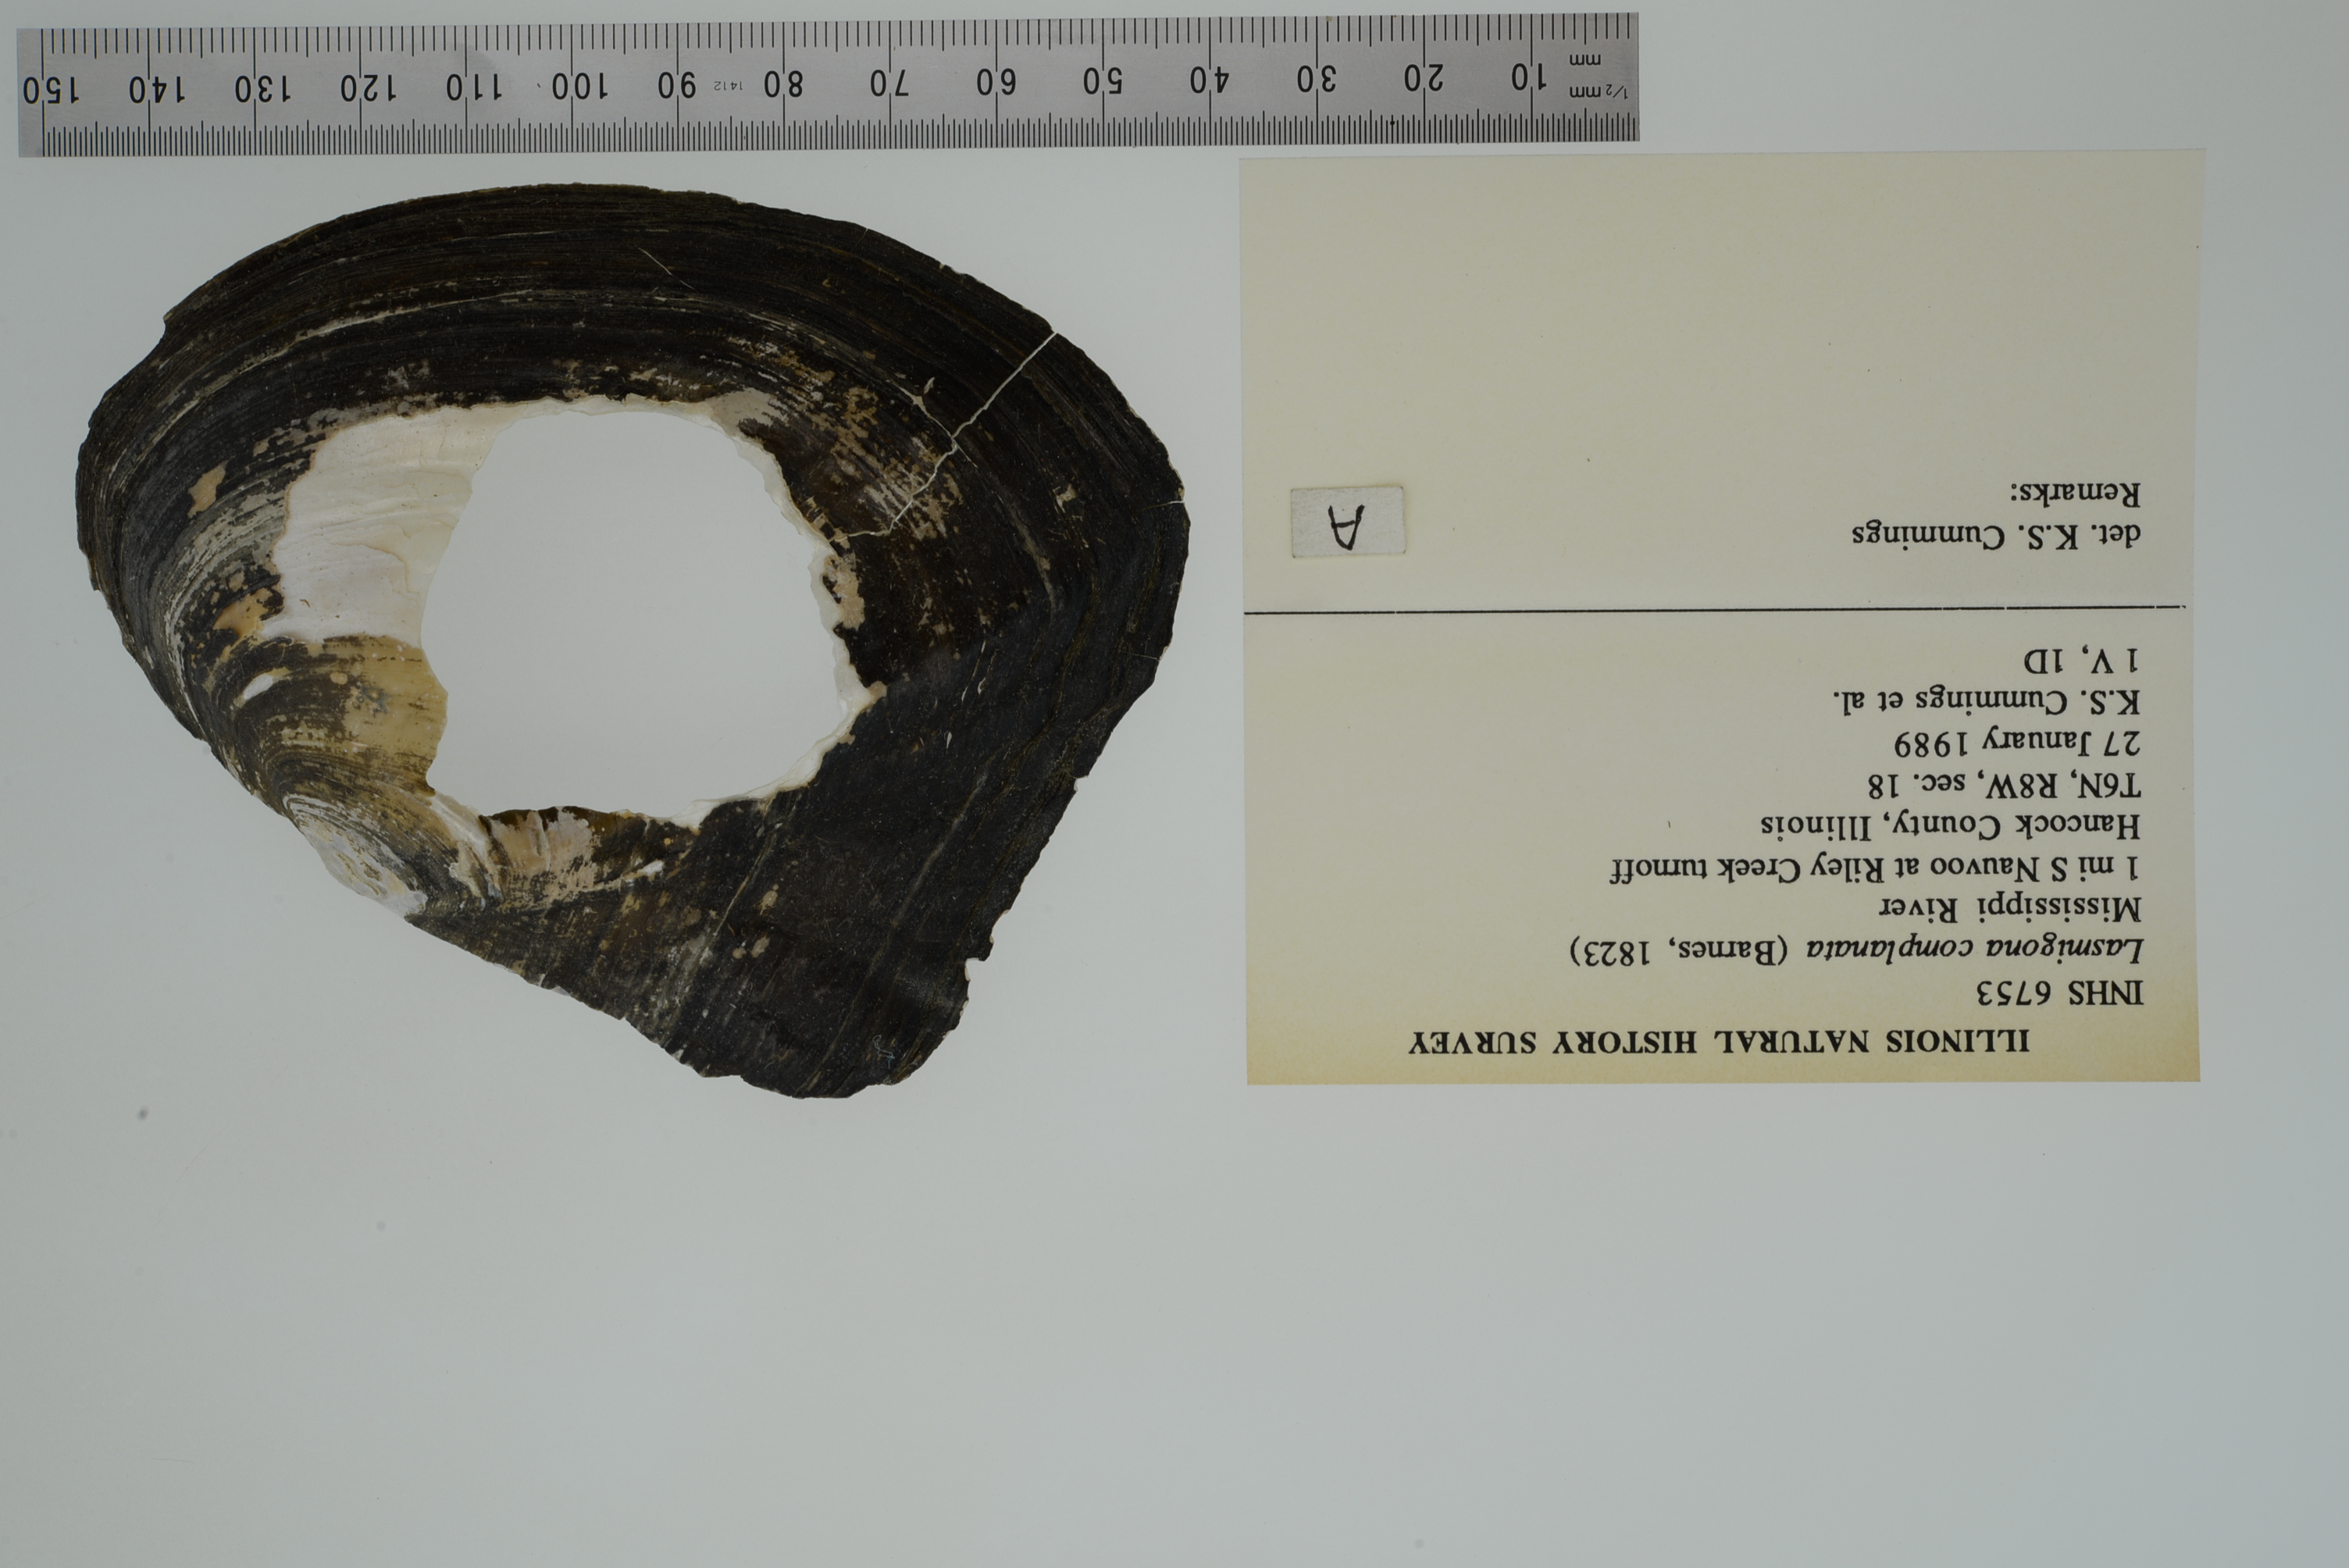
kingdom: Animalia
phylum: Mollusca
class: Bivalvia
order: Unionida
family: Unionidae
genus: Lasmigona
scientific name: Lasmigona complanata
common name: White heelsplitter
